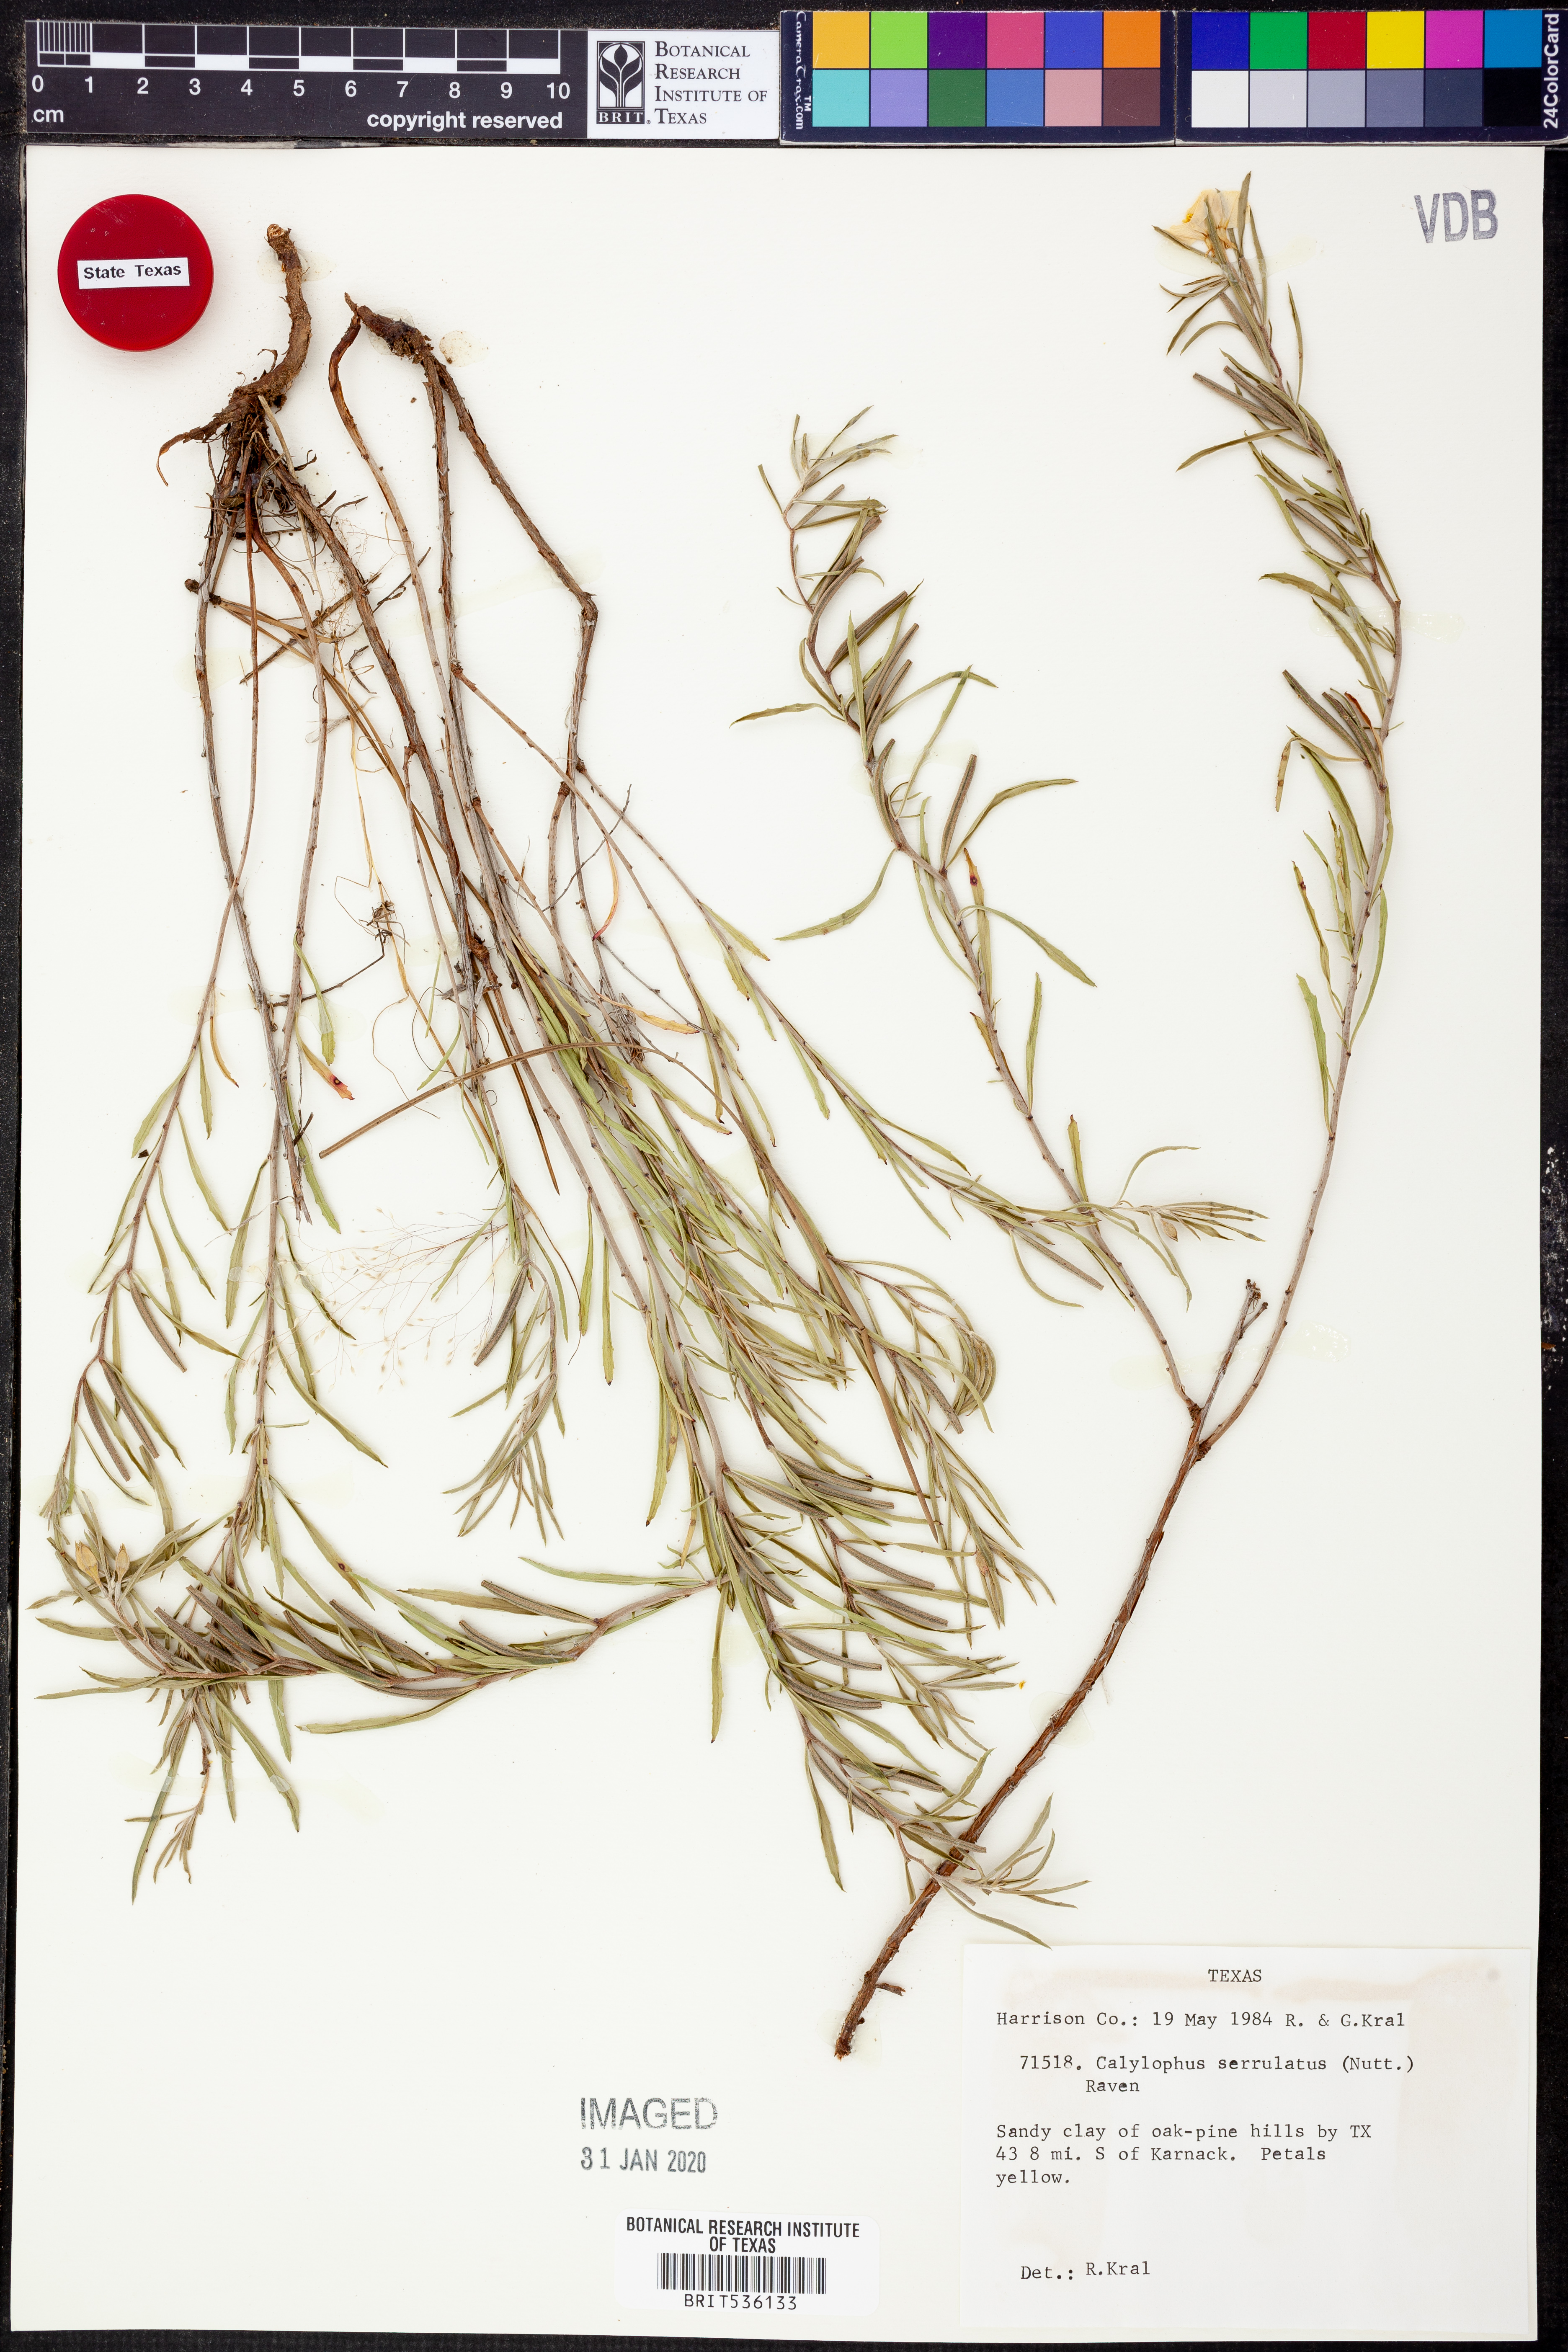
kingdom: Plantae
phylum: Tracheophyta
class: Magnoliopsida
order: Myrtales
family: Onagraceae
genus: Oenothera
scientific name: Oenothera serrulata
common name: Half-shrub calylophus
